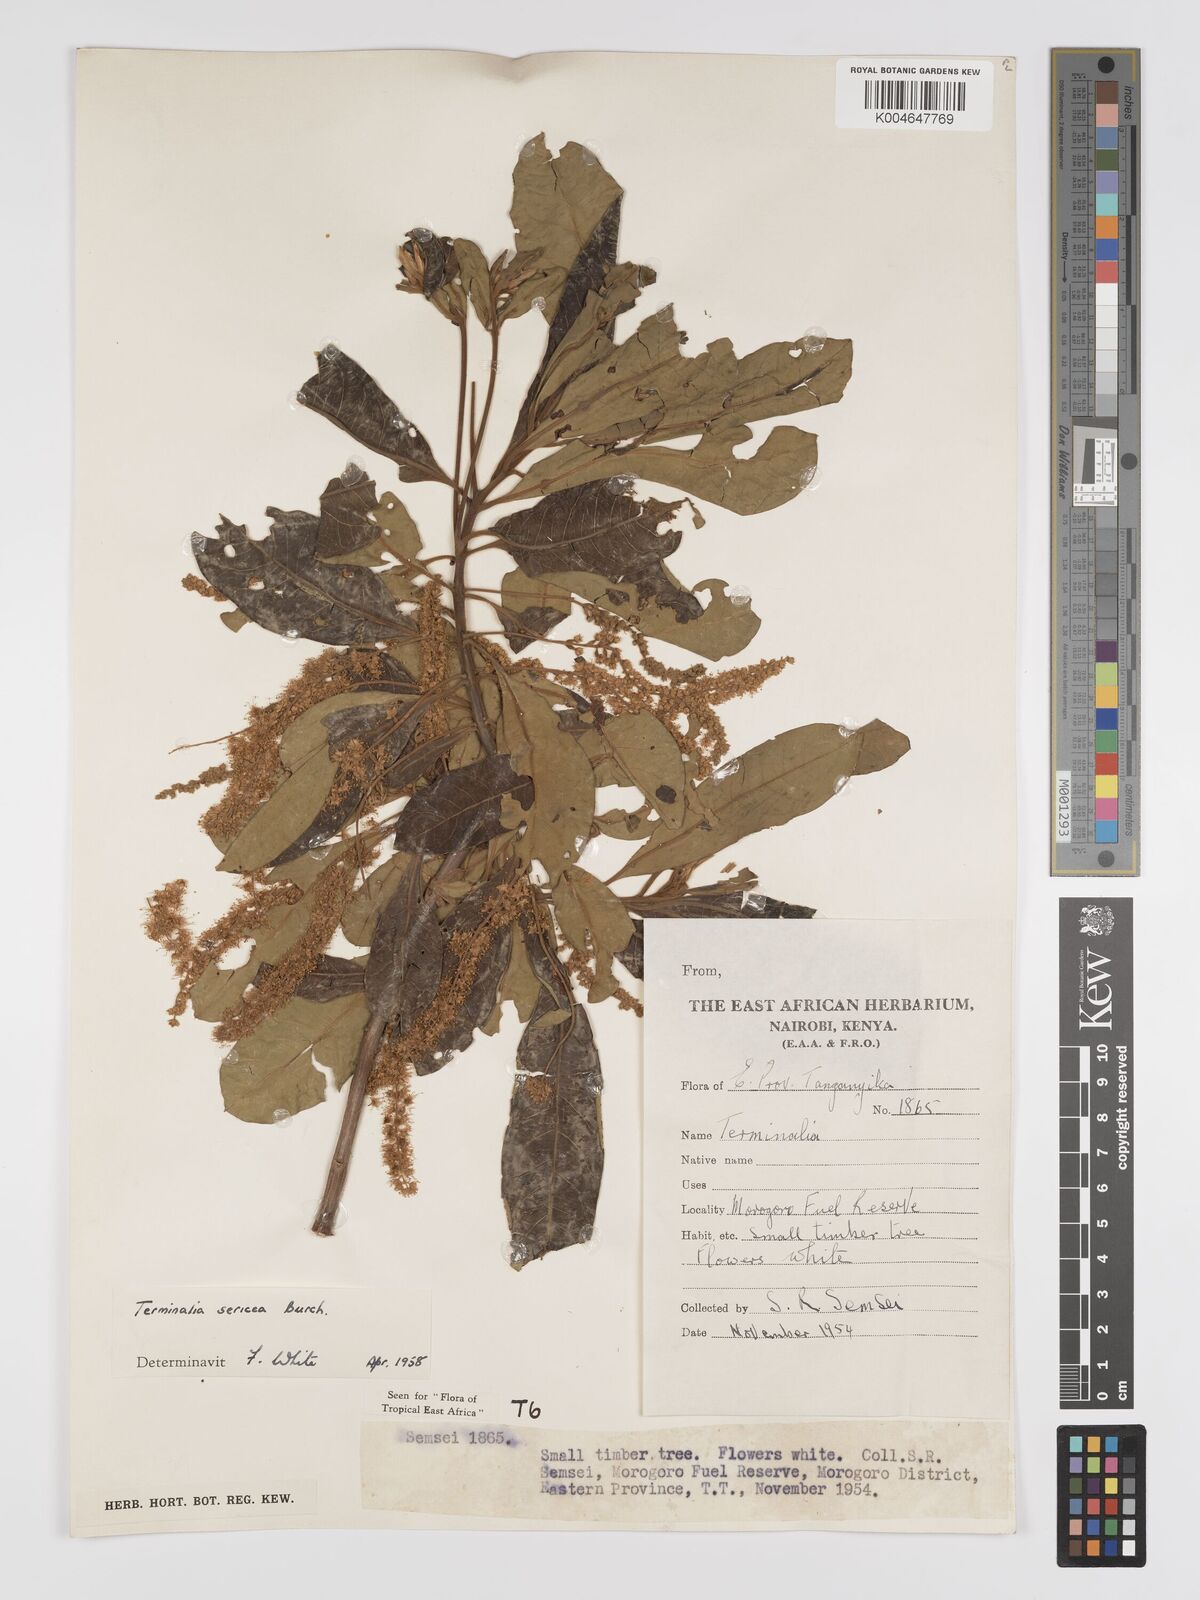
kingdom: Plantae
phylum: Tracheophyta
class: Magnoliopsida
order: Myrtales
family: Combretaceae
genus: Terminalia
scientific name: Terminalia
